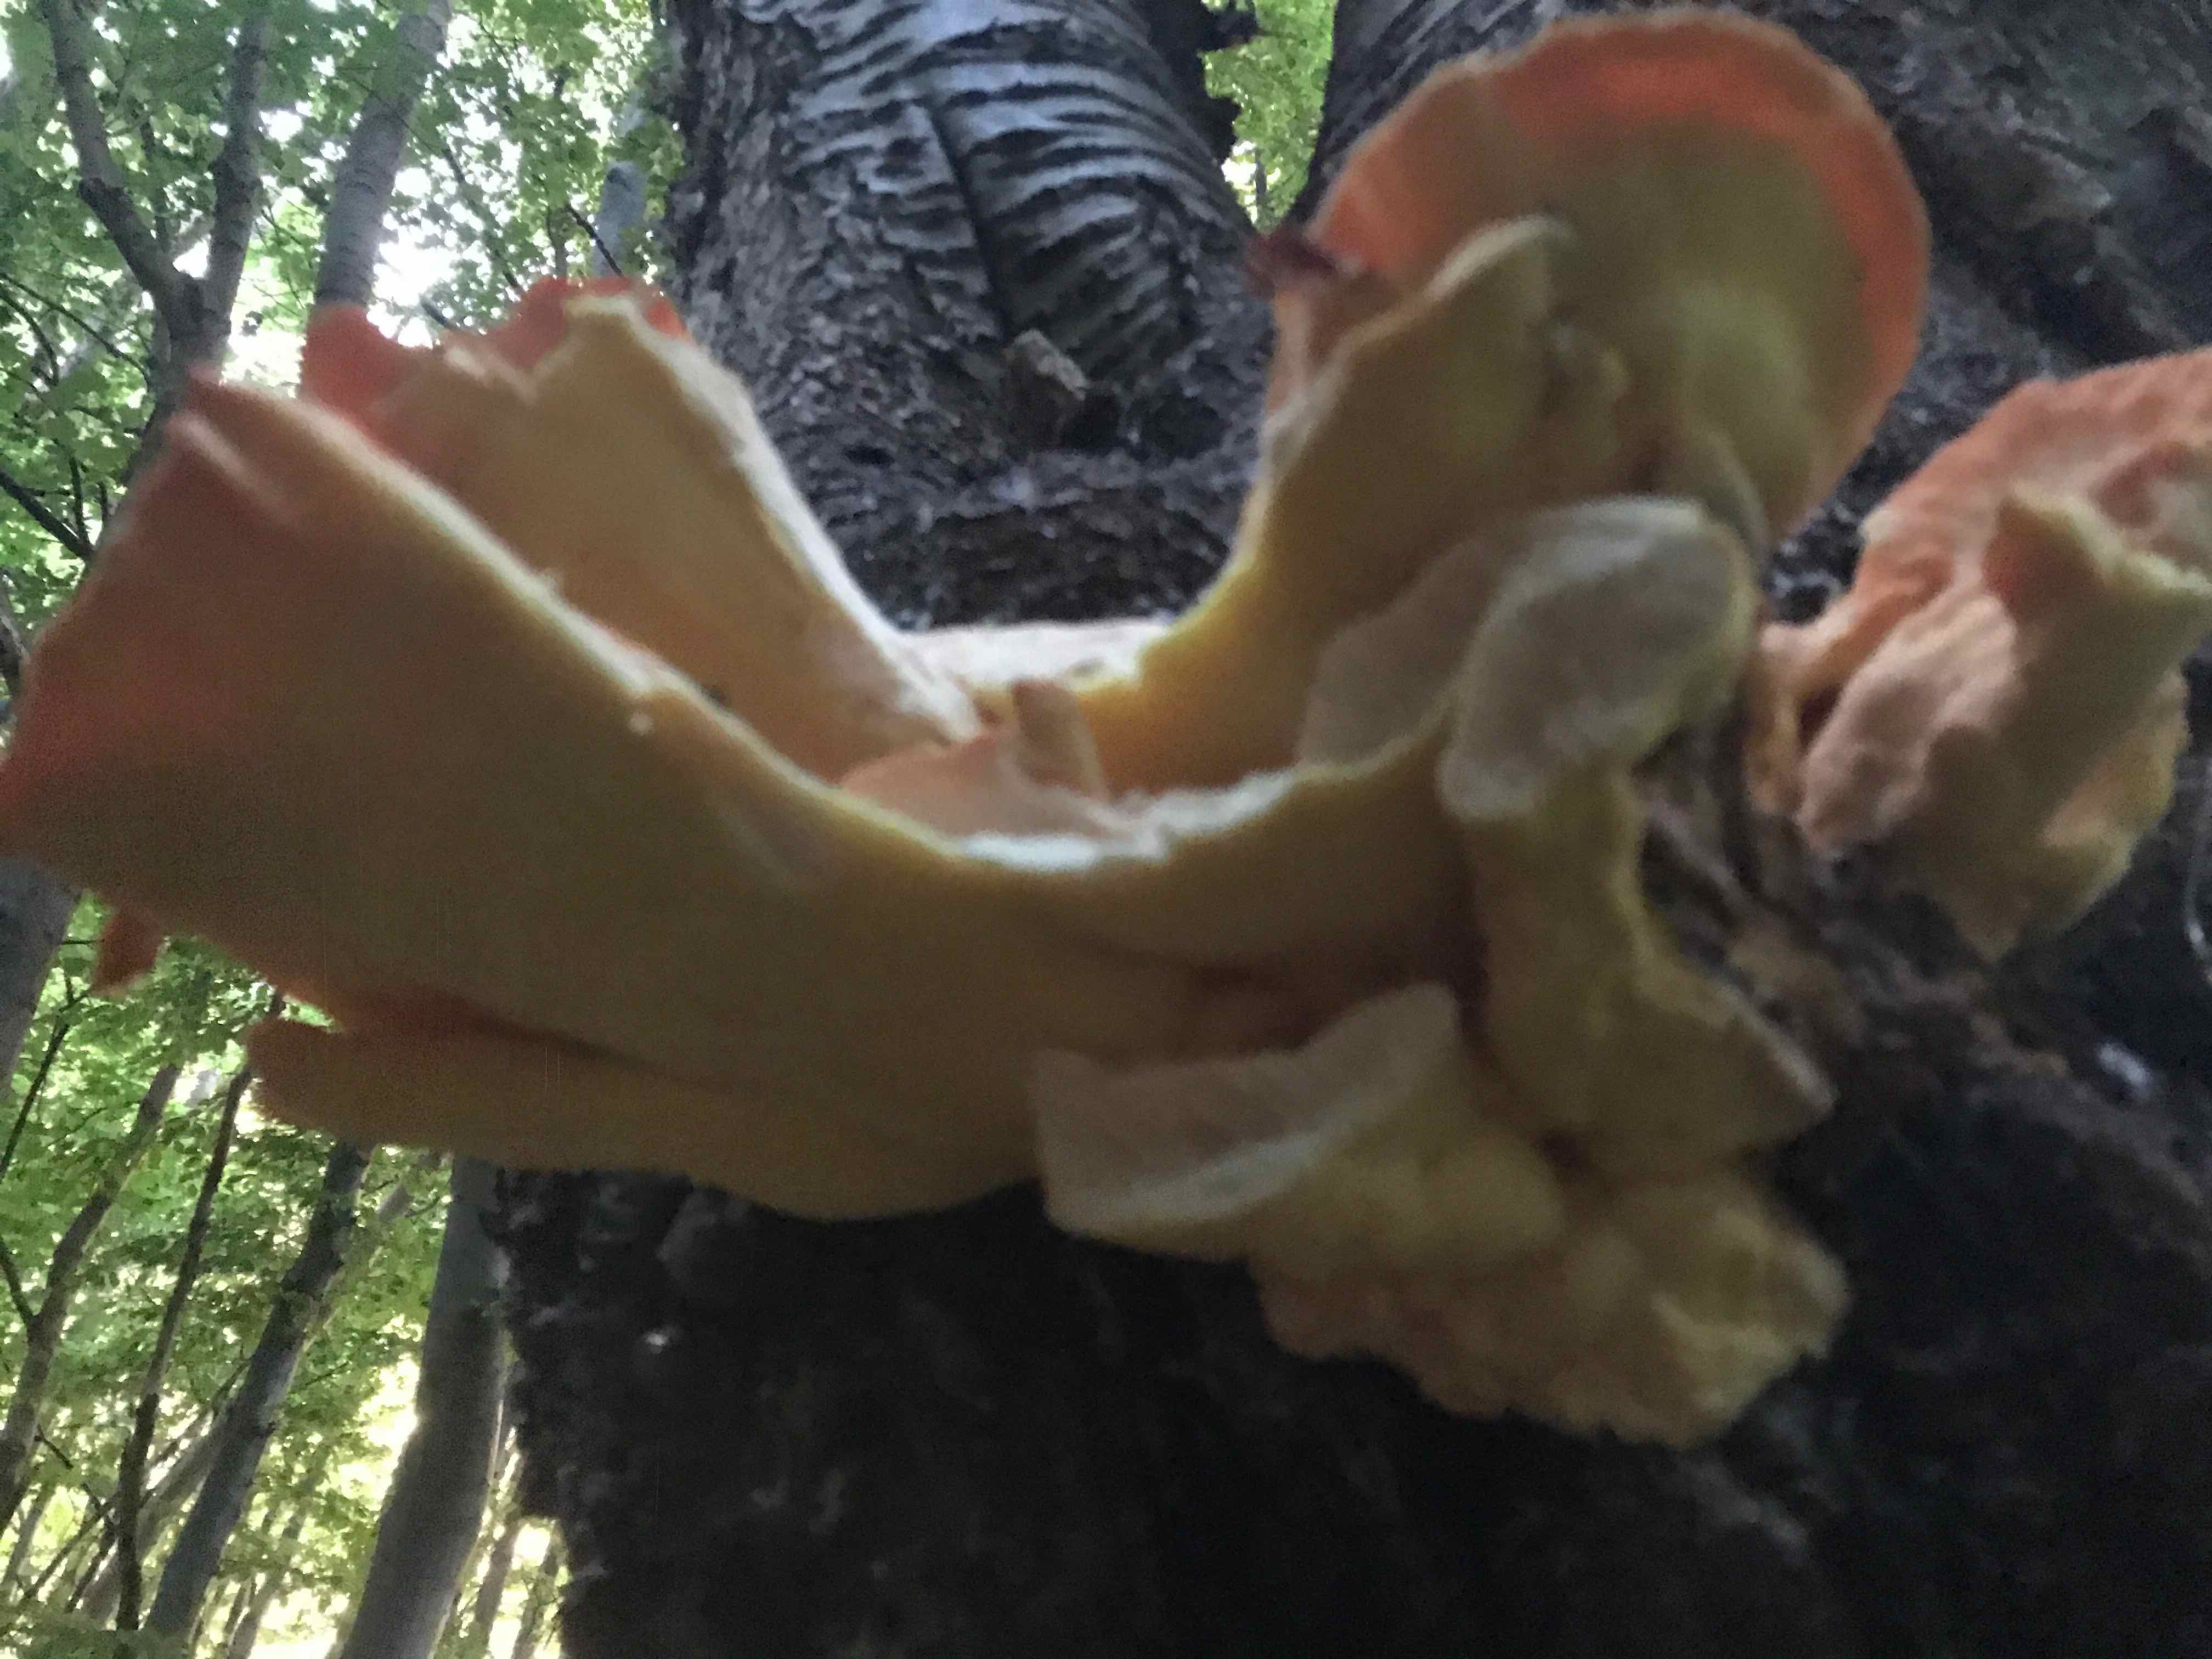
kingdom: Fungi
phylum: Basidiomycota
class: Agaricomycetes
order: Polyporales
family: Laetiporaceae
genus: Laetiporus
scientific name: Laetiporus sulphureus
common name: svovlporesvamp
